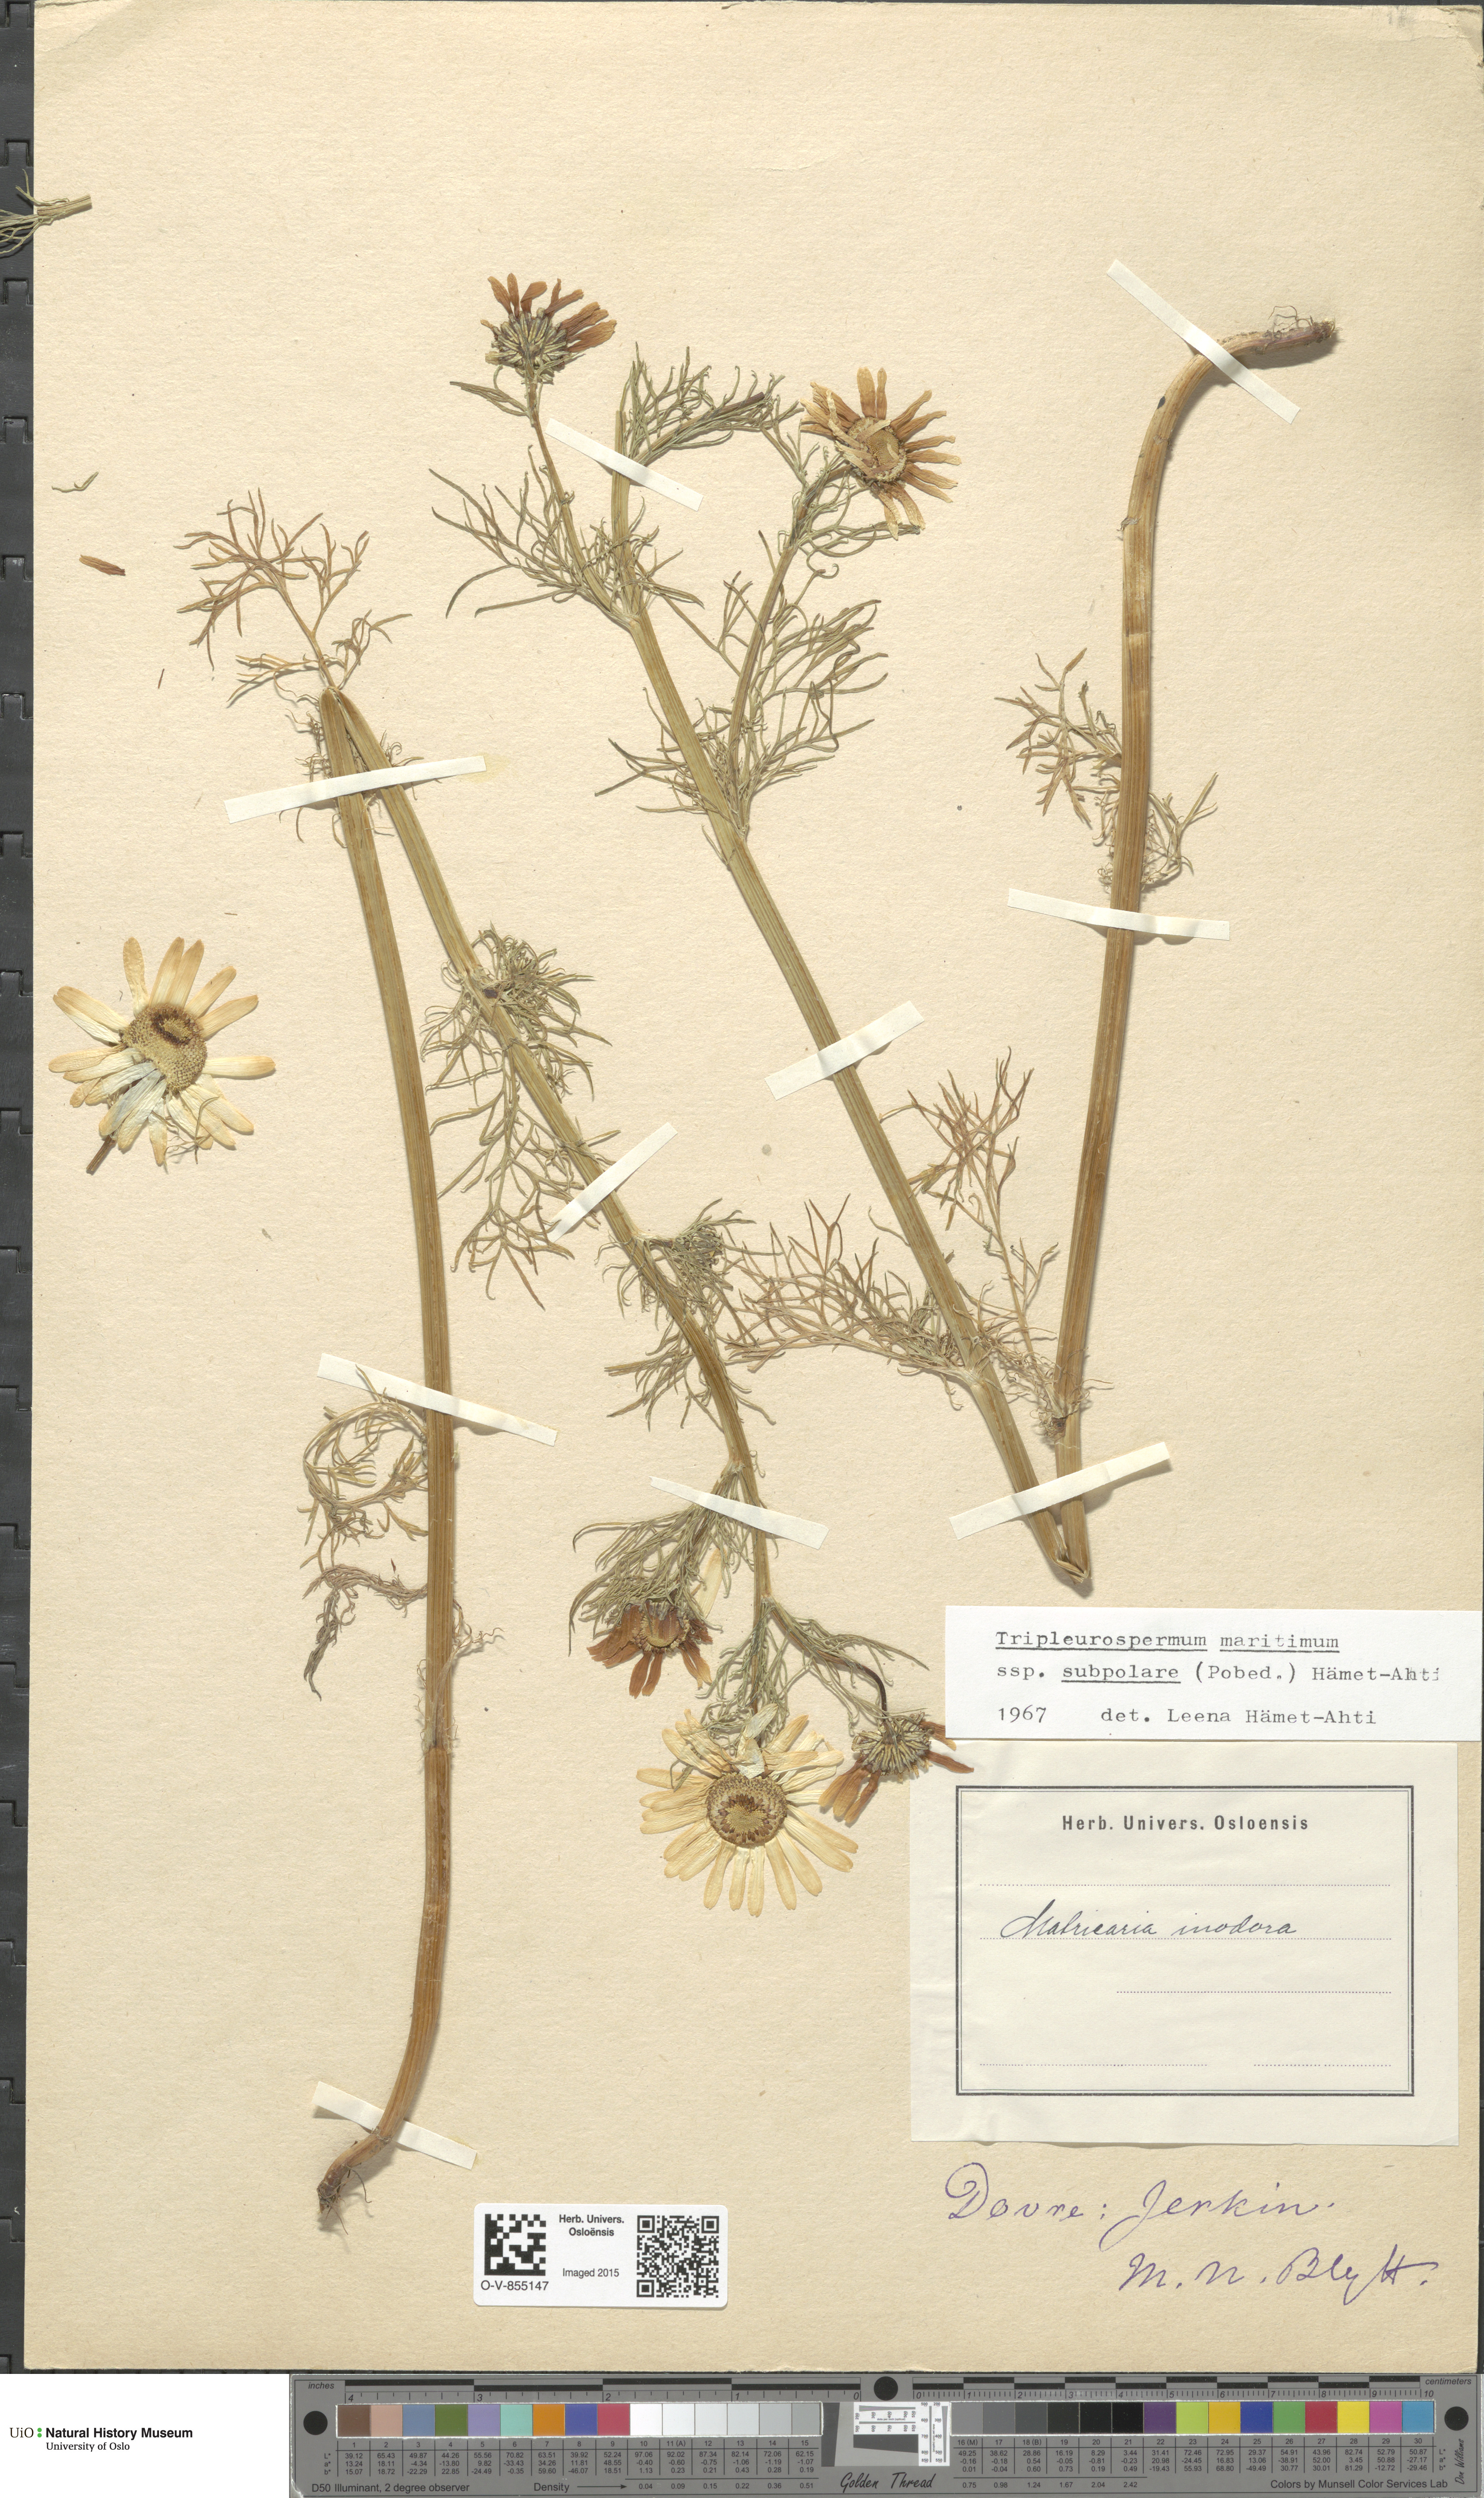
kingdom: Plantae
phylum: Tracheophyta
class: Magnoliopsida
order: Asterales
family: Asteraceae
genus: Tripleurospermum
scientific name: Tripleurospermum subpolare
